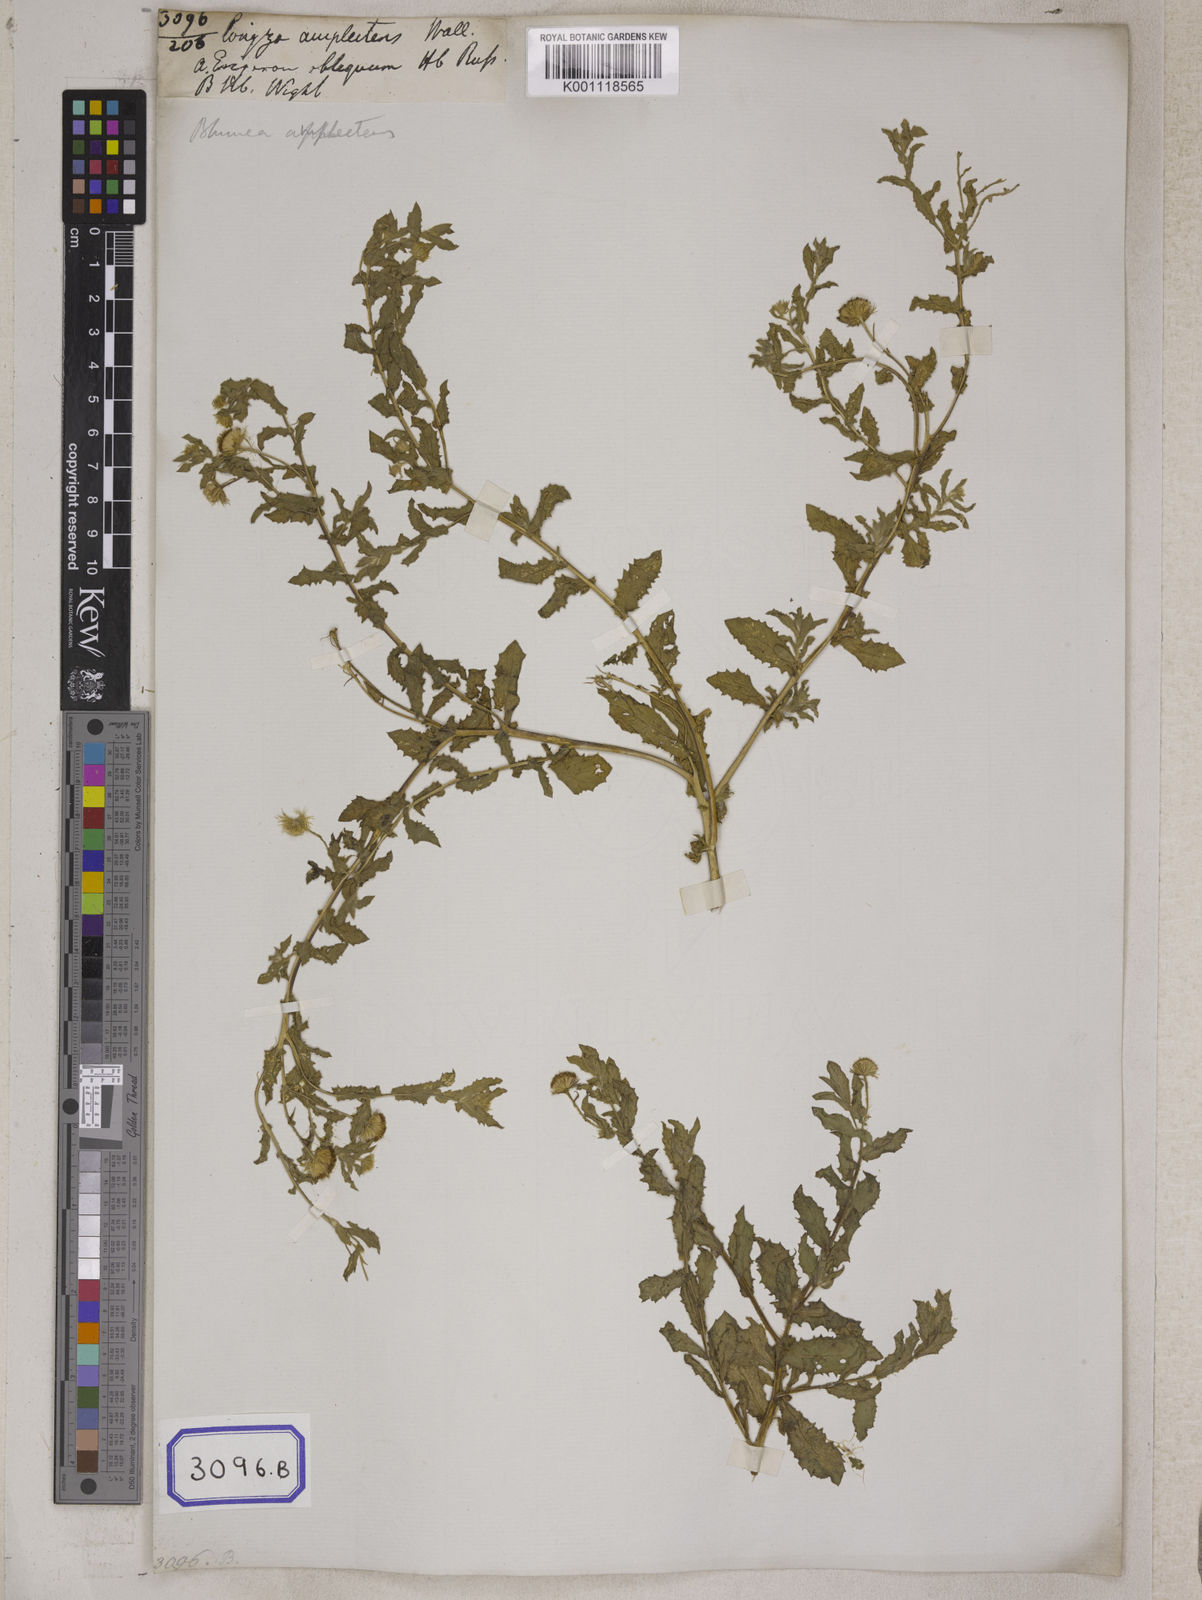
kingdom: Plantae
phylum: Tracheophyta
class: Magnoliopsida
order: Asterales
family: Asteraceae
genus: Blumea
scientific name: Blumea obliqua
